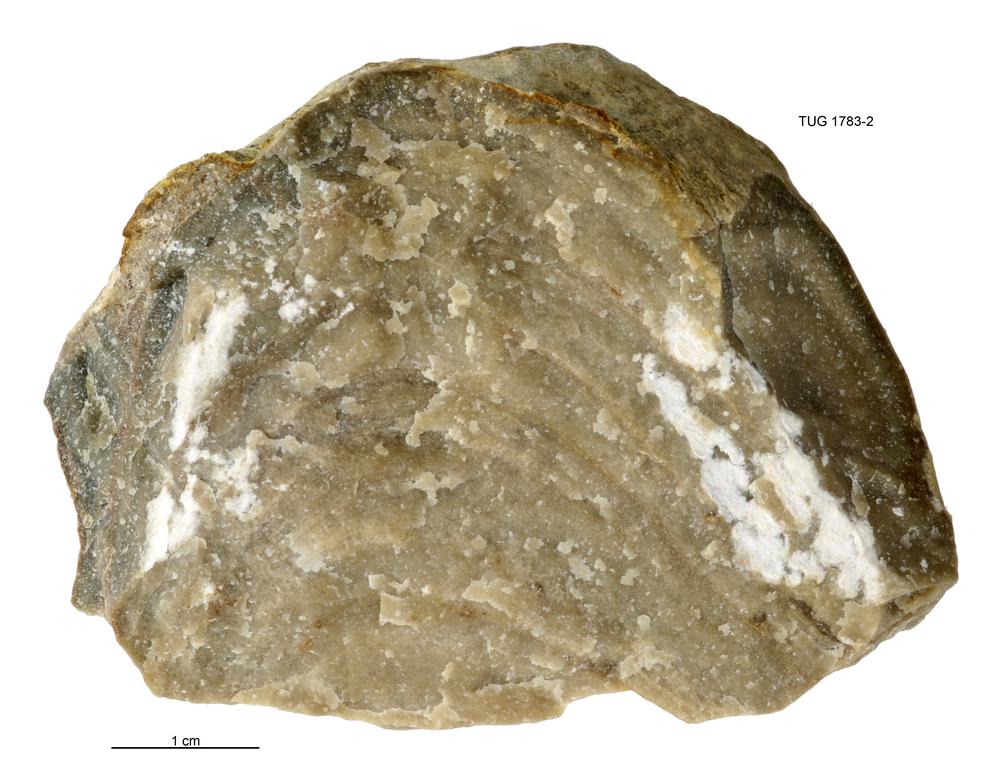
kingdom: Animalia
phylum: Cnidaria
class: Anthozoa
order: Heliolitina
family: Heliolitidae
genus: Heliolites
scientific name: Heliolites
